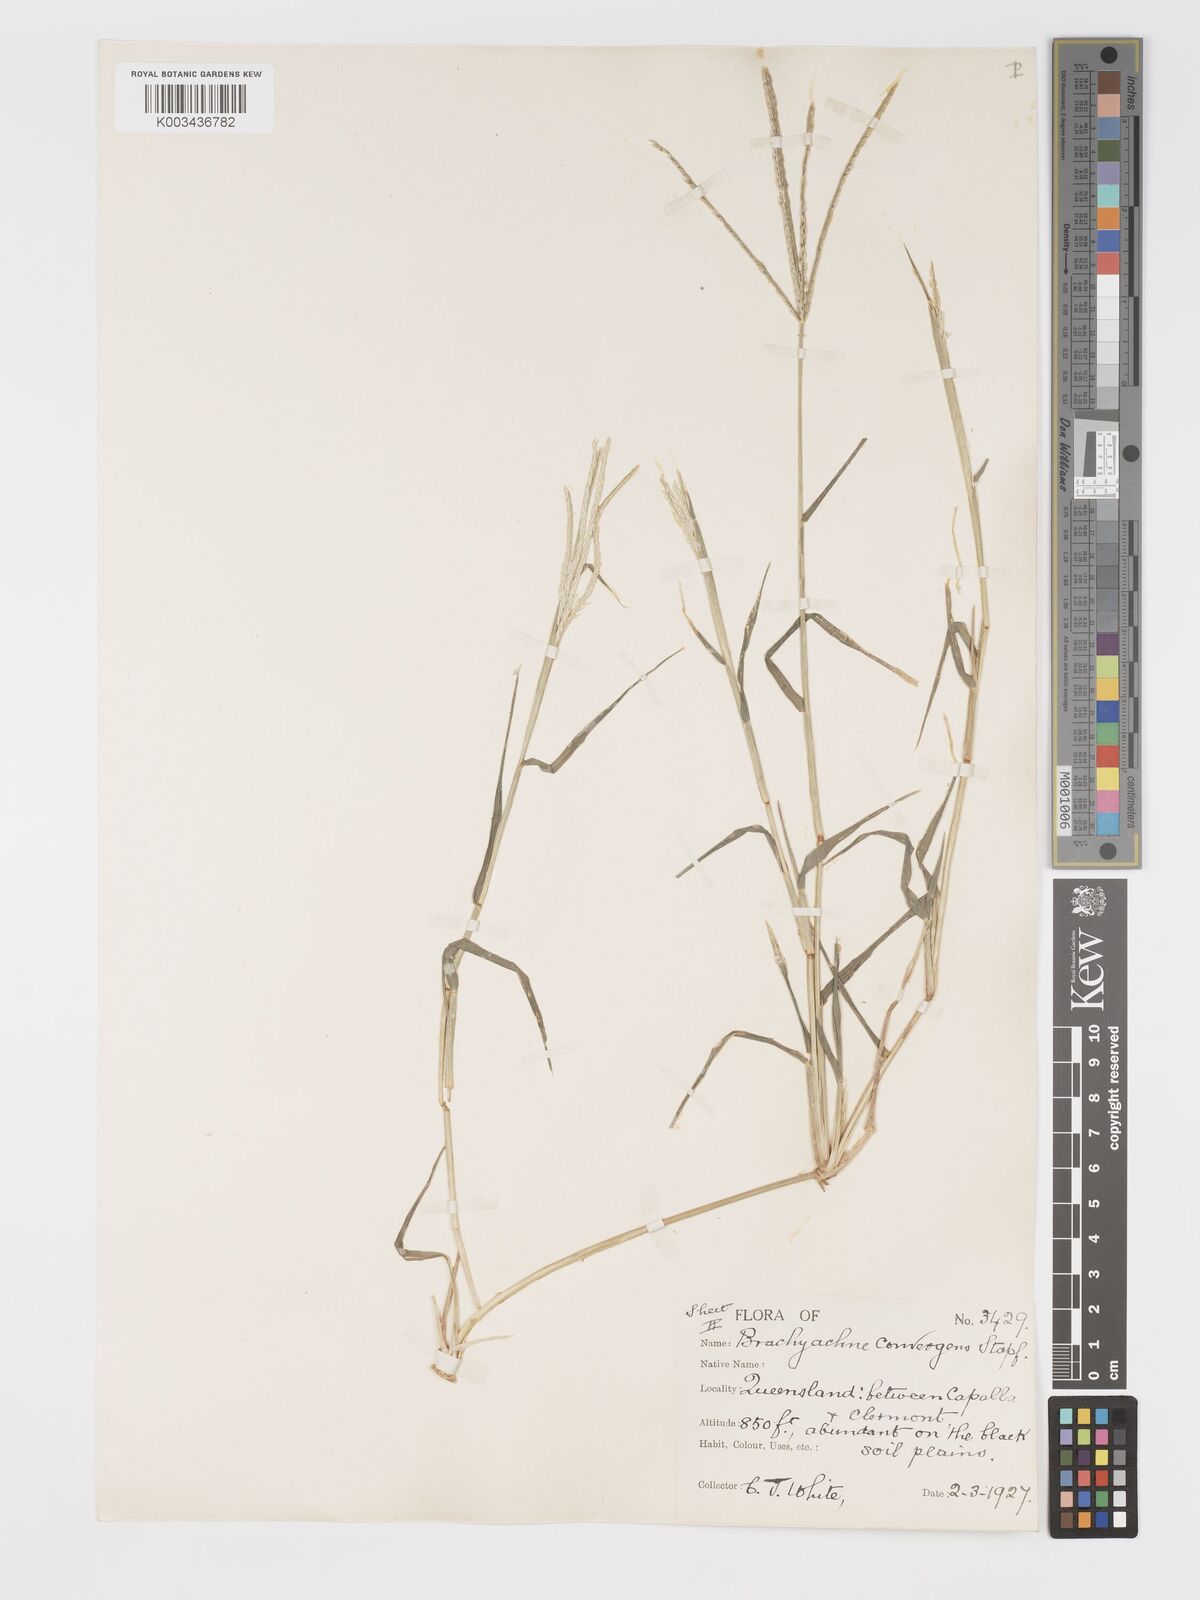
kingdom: Plantae
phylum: Tracheophyta
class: Liliopsida
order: Poales
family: Poaceae
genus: Cynodon
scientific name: Cynodon convergens
